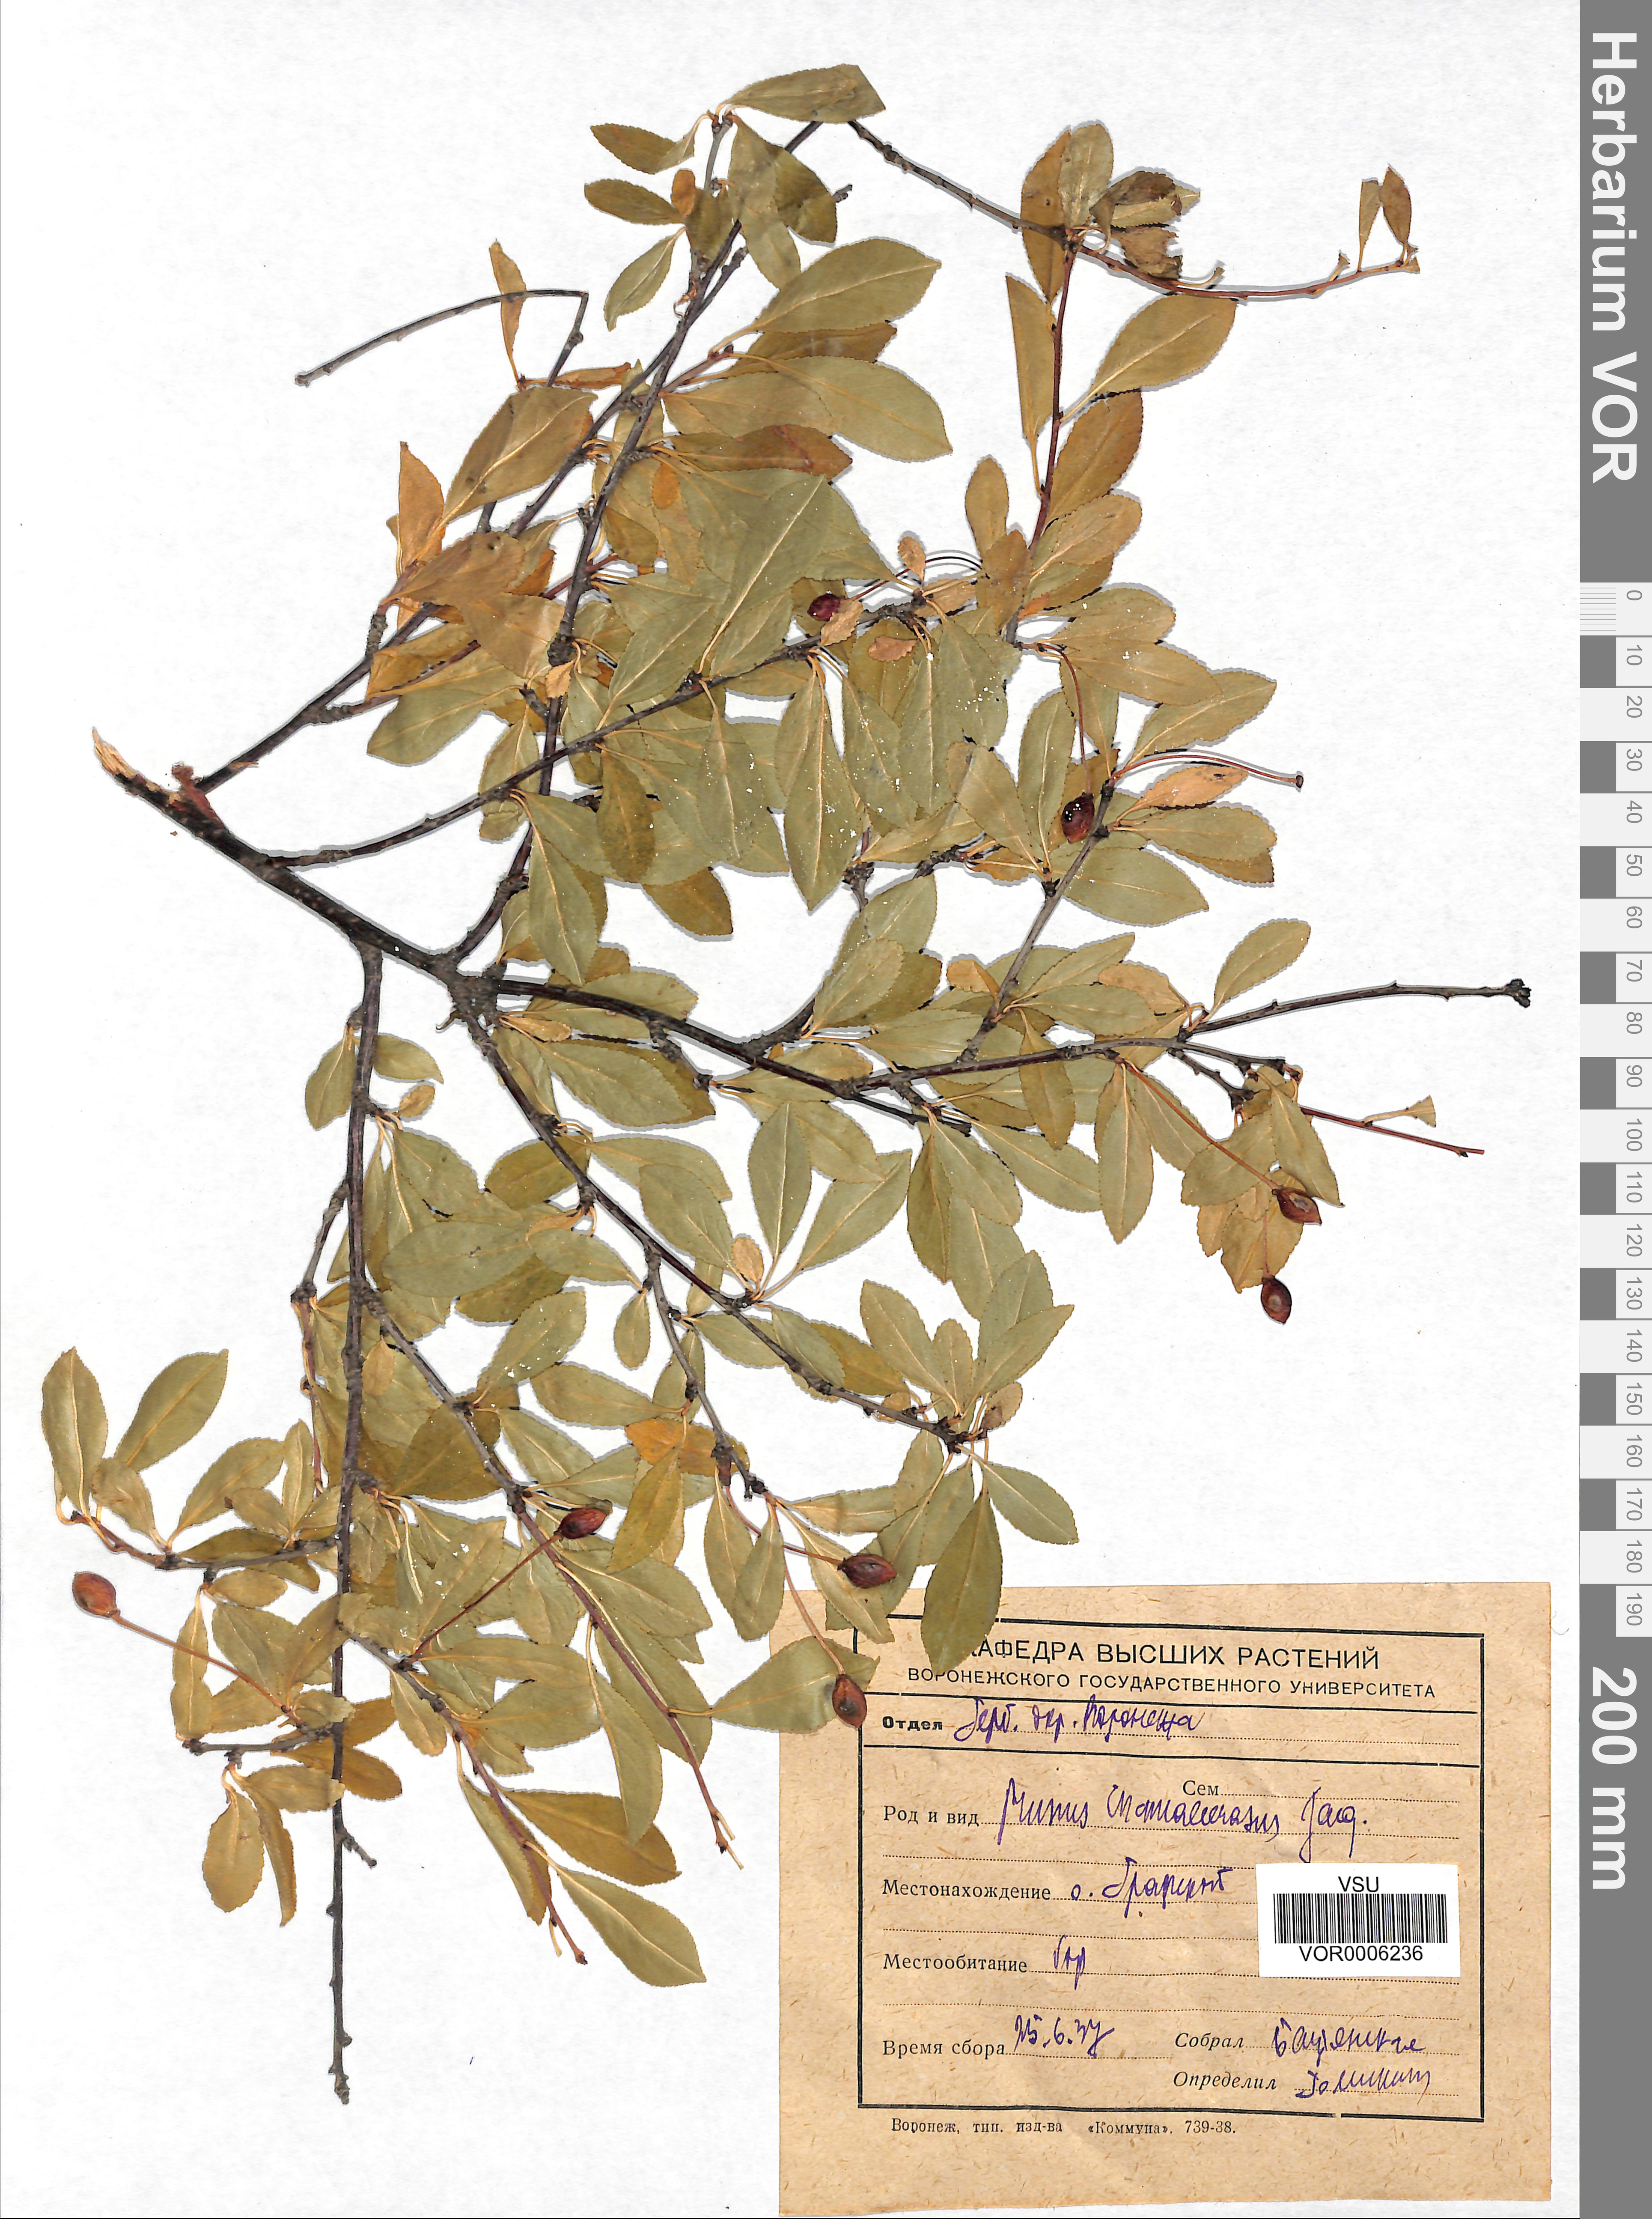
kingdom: Plantae
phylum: Tracheophyta
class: Magnoliopsida
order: Rosales
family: Rosaceae
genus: Prunus
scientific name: Prunus fruticosa
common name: European dwarf cherry
